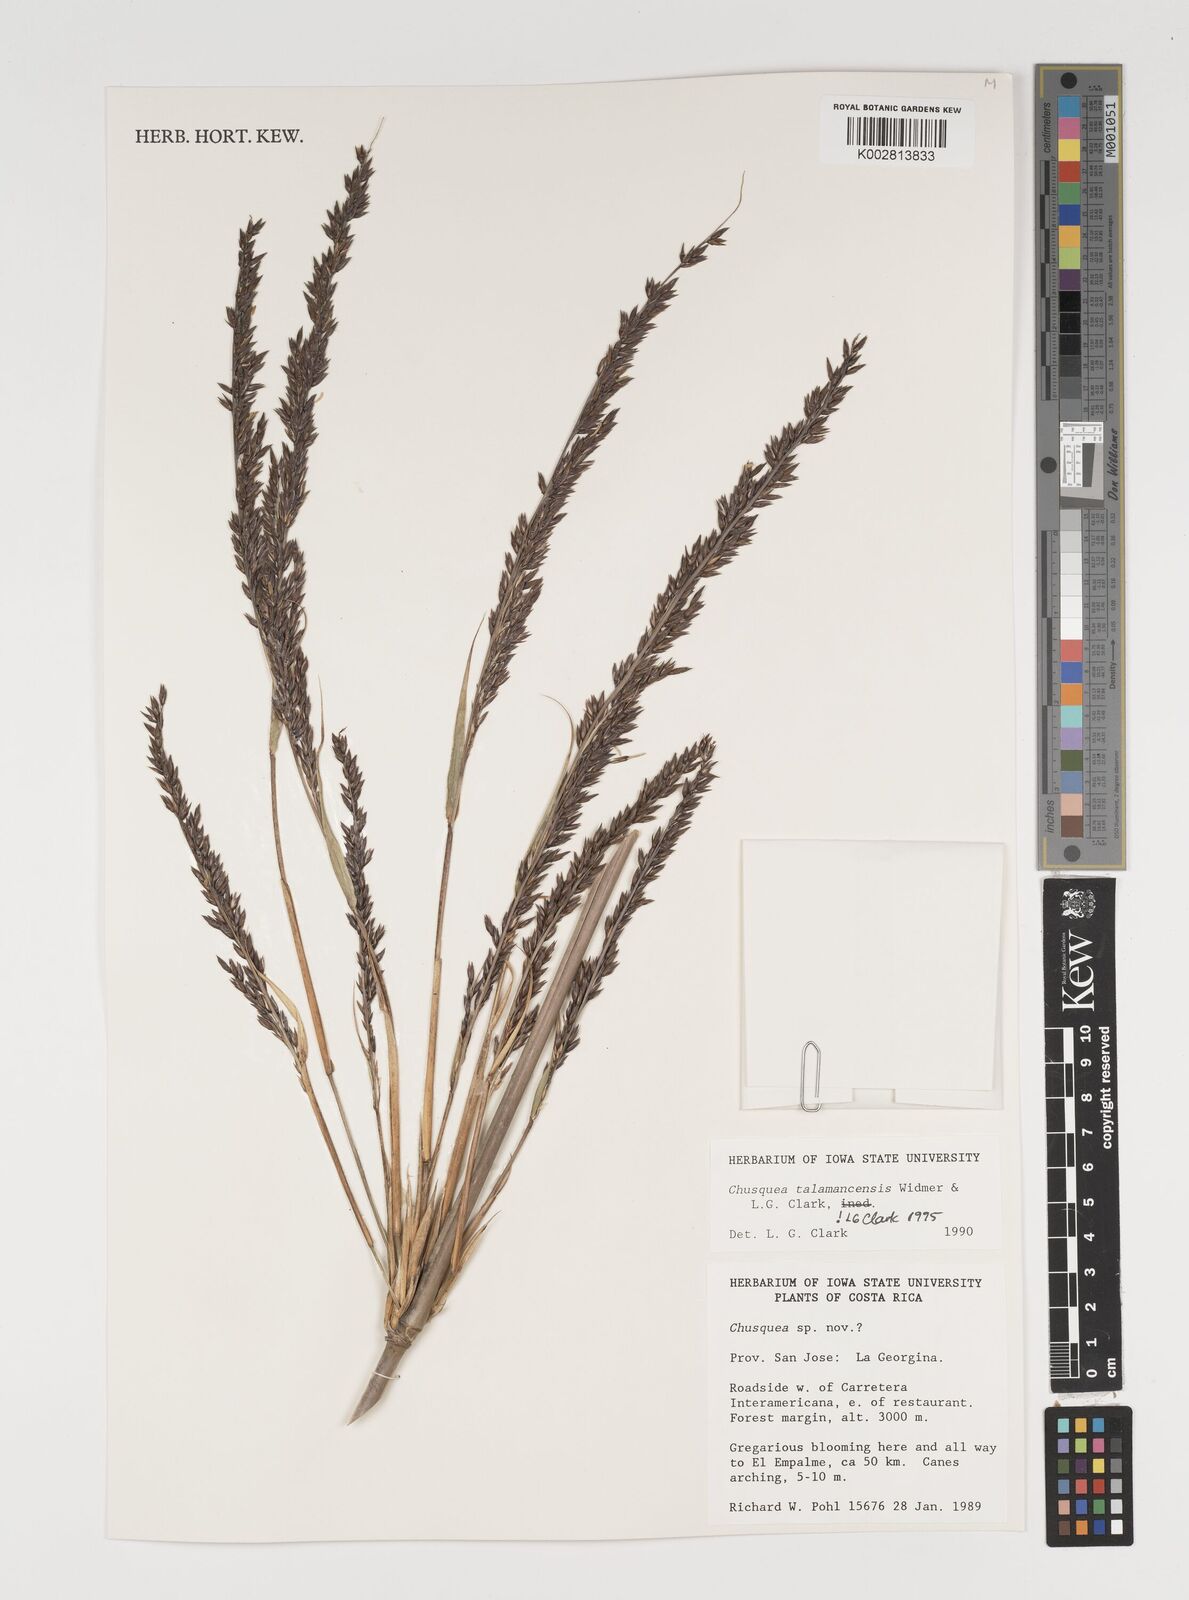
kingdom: Plantae
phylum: Tracheophyta
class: Liliopsida
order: Poales
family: Poaceae
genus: Chusquea
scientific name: Chusquea talamancensis
